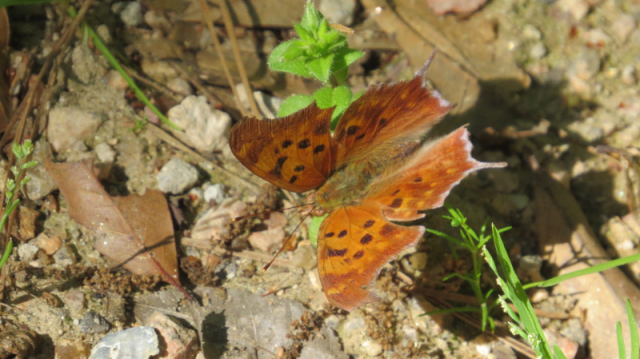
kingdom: Animalia
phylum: Arthropoda
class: Insecta
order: Lepidoptera
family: Nymphalidae
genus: Polygonia
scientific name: Polygonia interrogationis
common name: Question Mark
